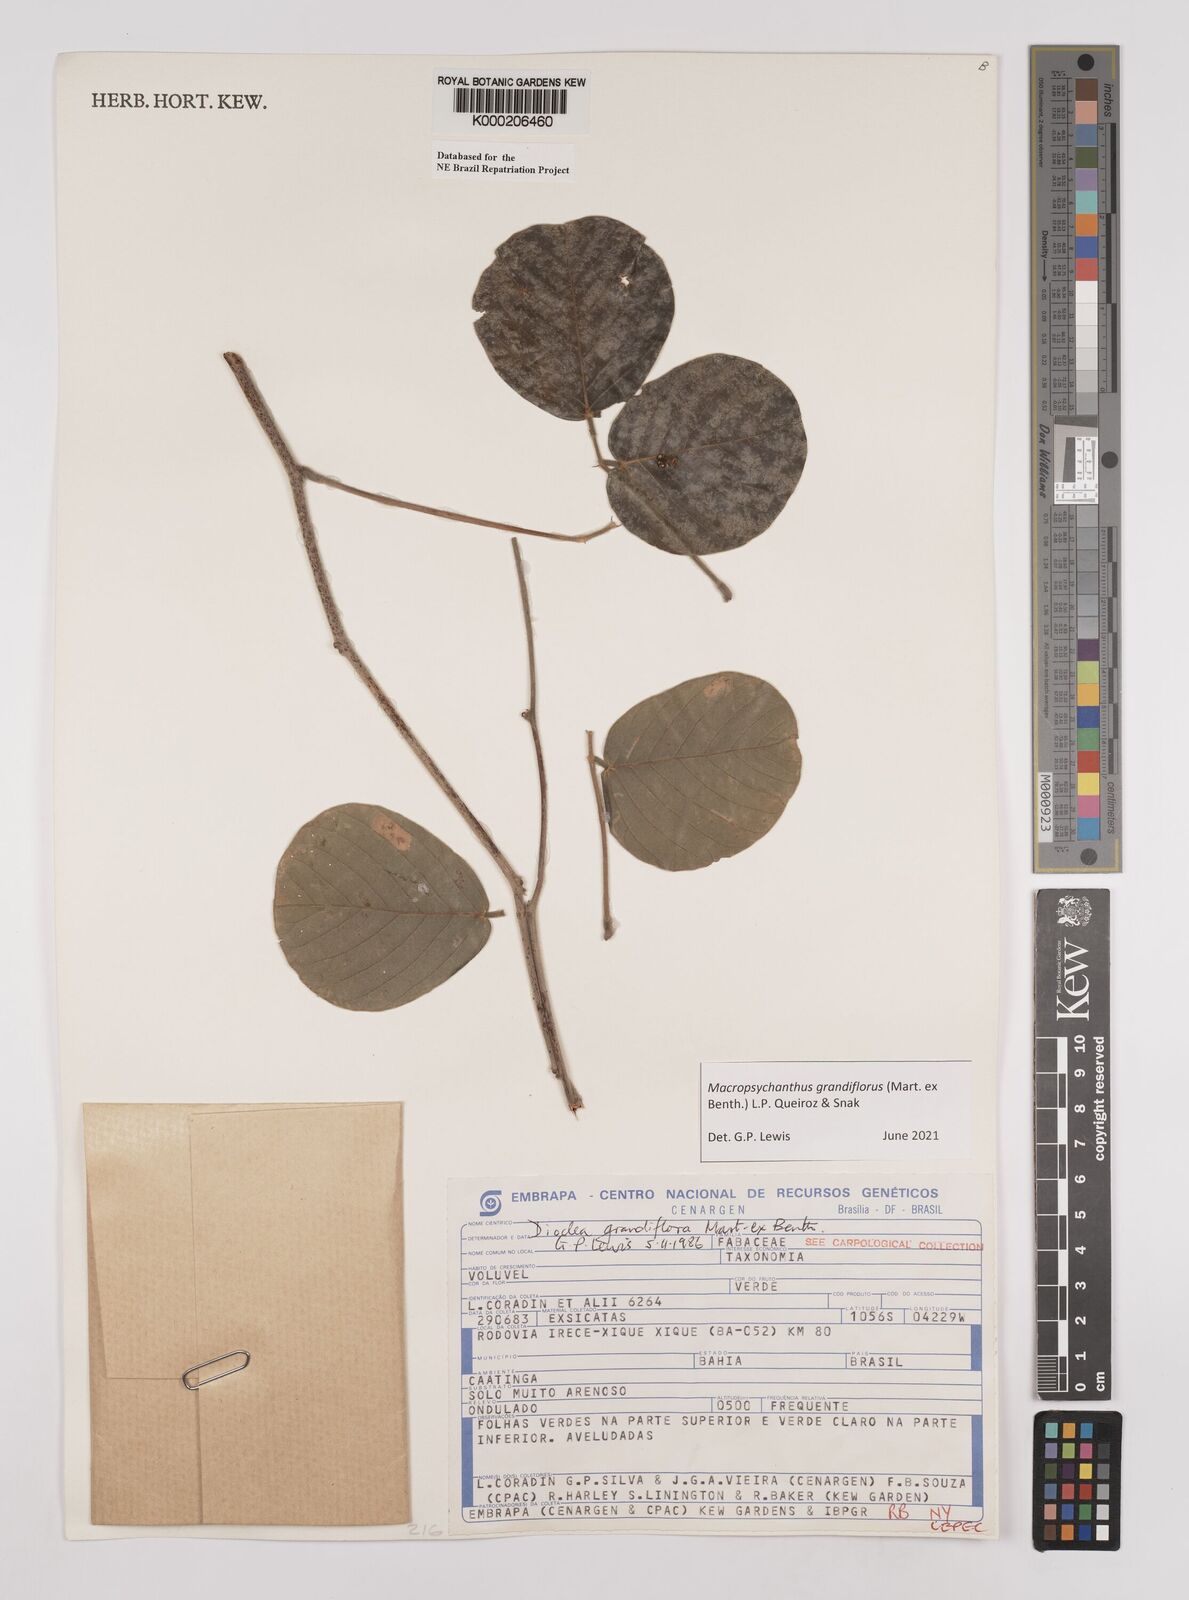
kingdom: Plantae
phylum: Tracheophyta
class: Magnoliopsida
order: Fabales
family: Fabaceae
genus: Macropsychanthus
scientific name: Macropsychanthus grandiflorus
